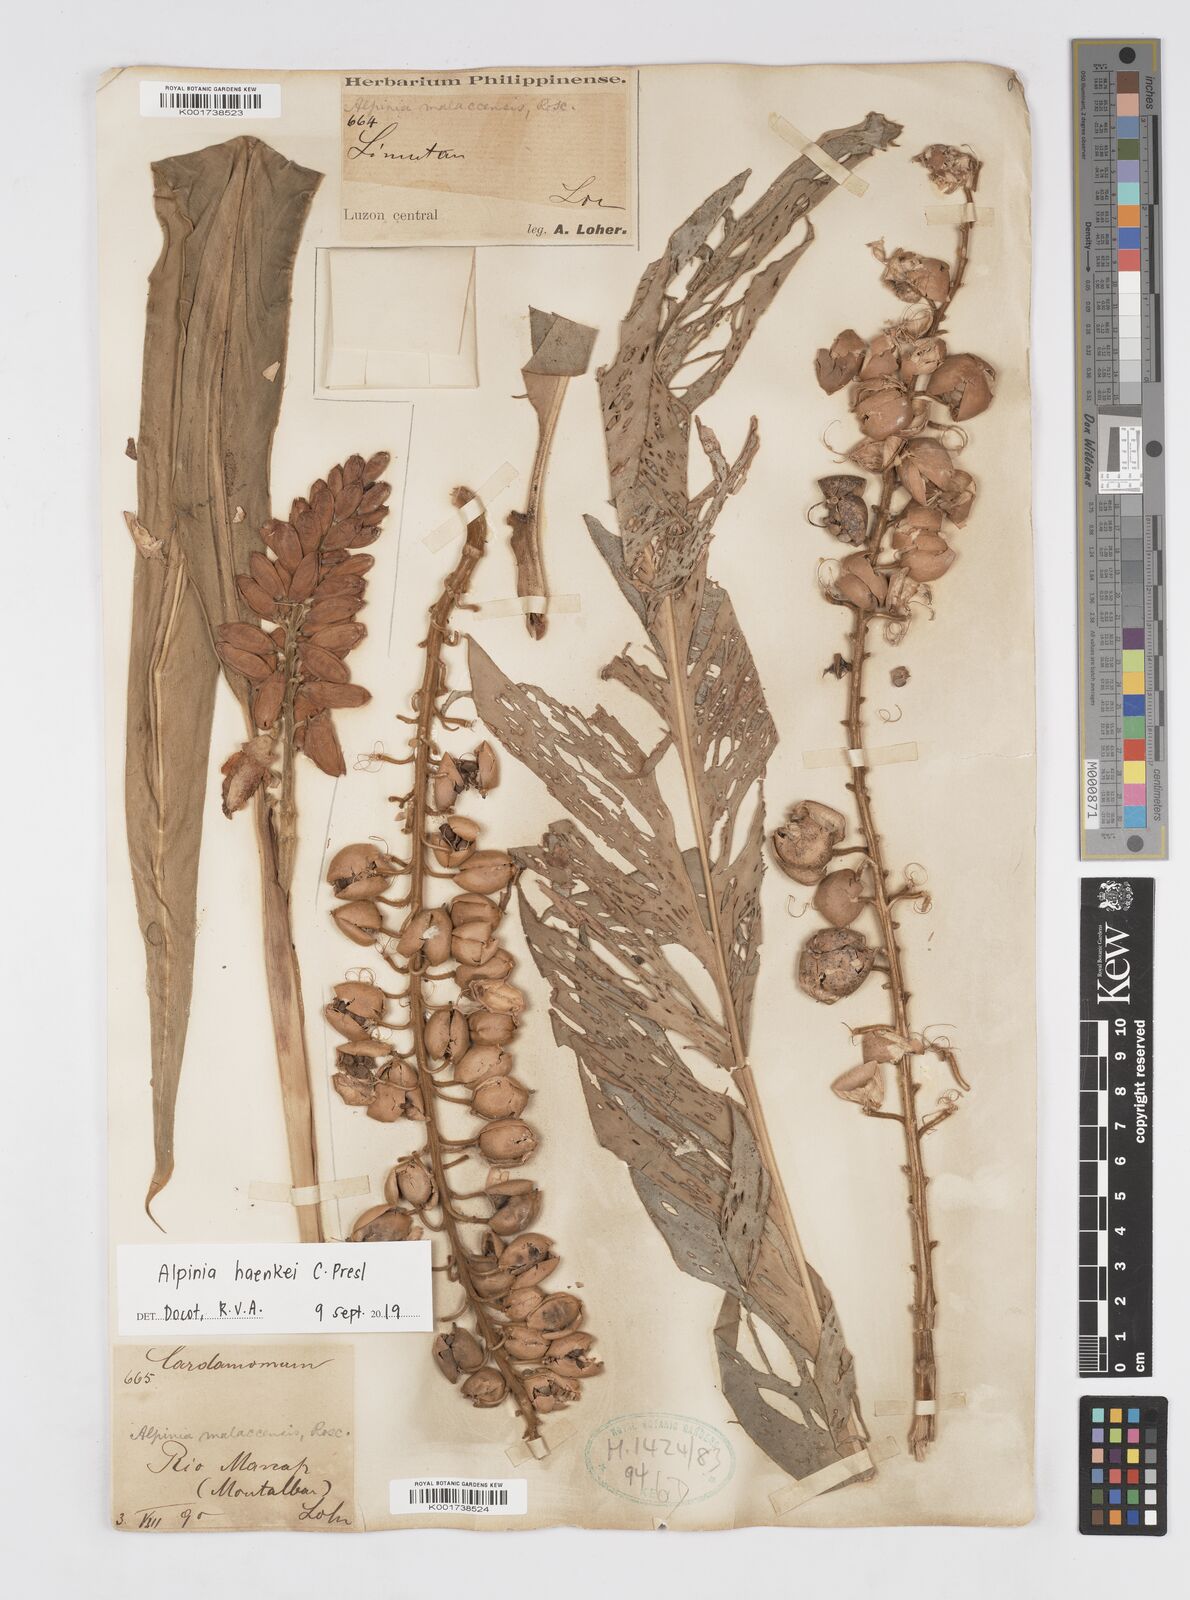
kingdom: Plantae
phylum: Tracheophyta
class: Liliopsida
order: Zingiberales
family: Zingiberaceae
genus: Alpinia
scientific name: Alpinia haenkei
